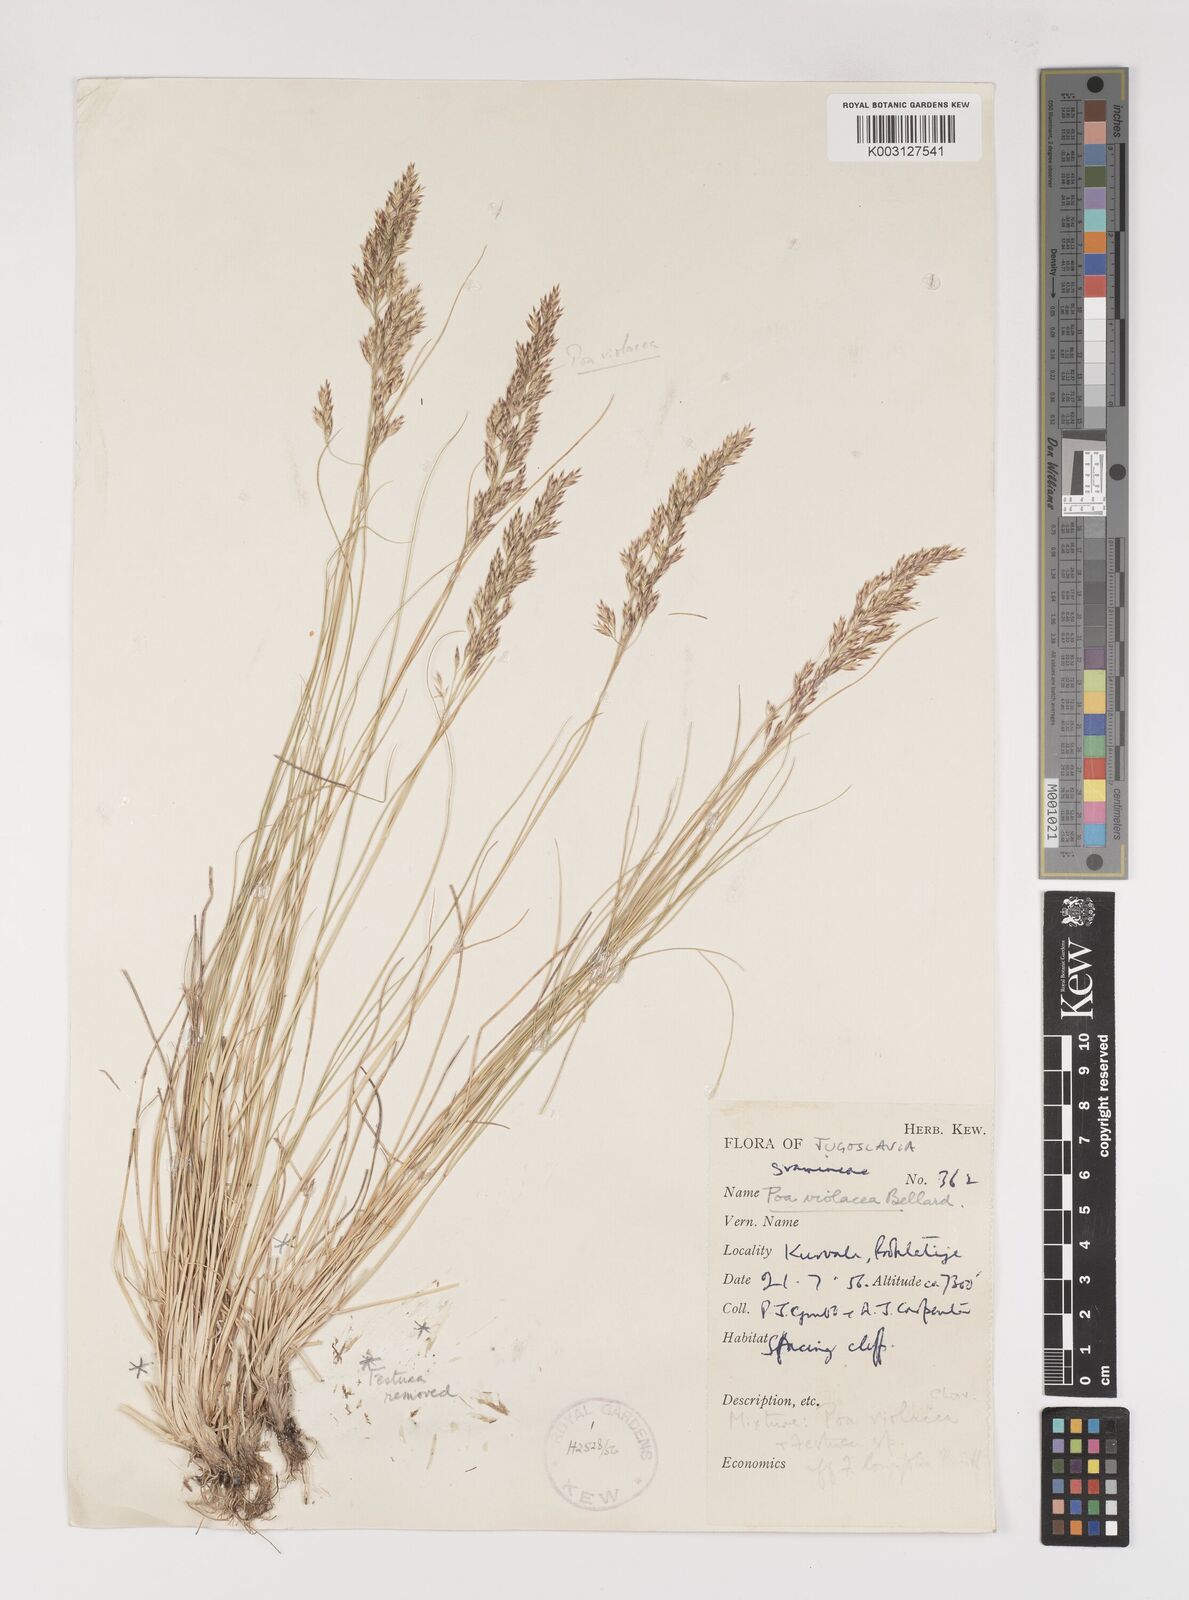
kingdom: Plantae
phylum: Tracheophyta
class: Liliopsida
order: Poales
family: Poaceae
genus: Bellardiochloa
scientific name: Bellardiochloa variegata
